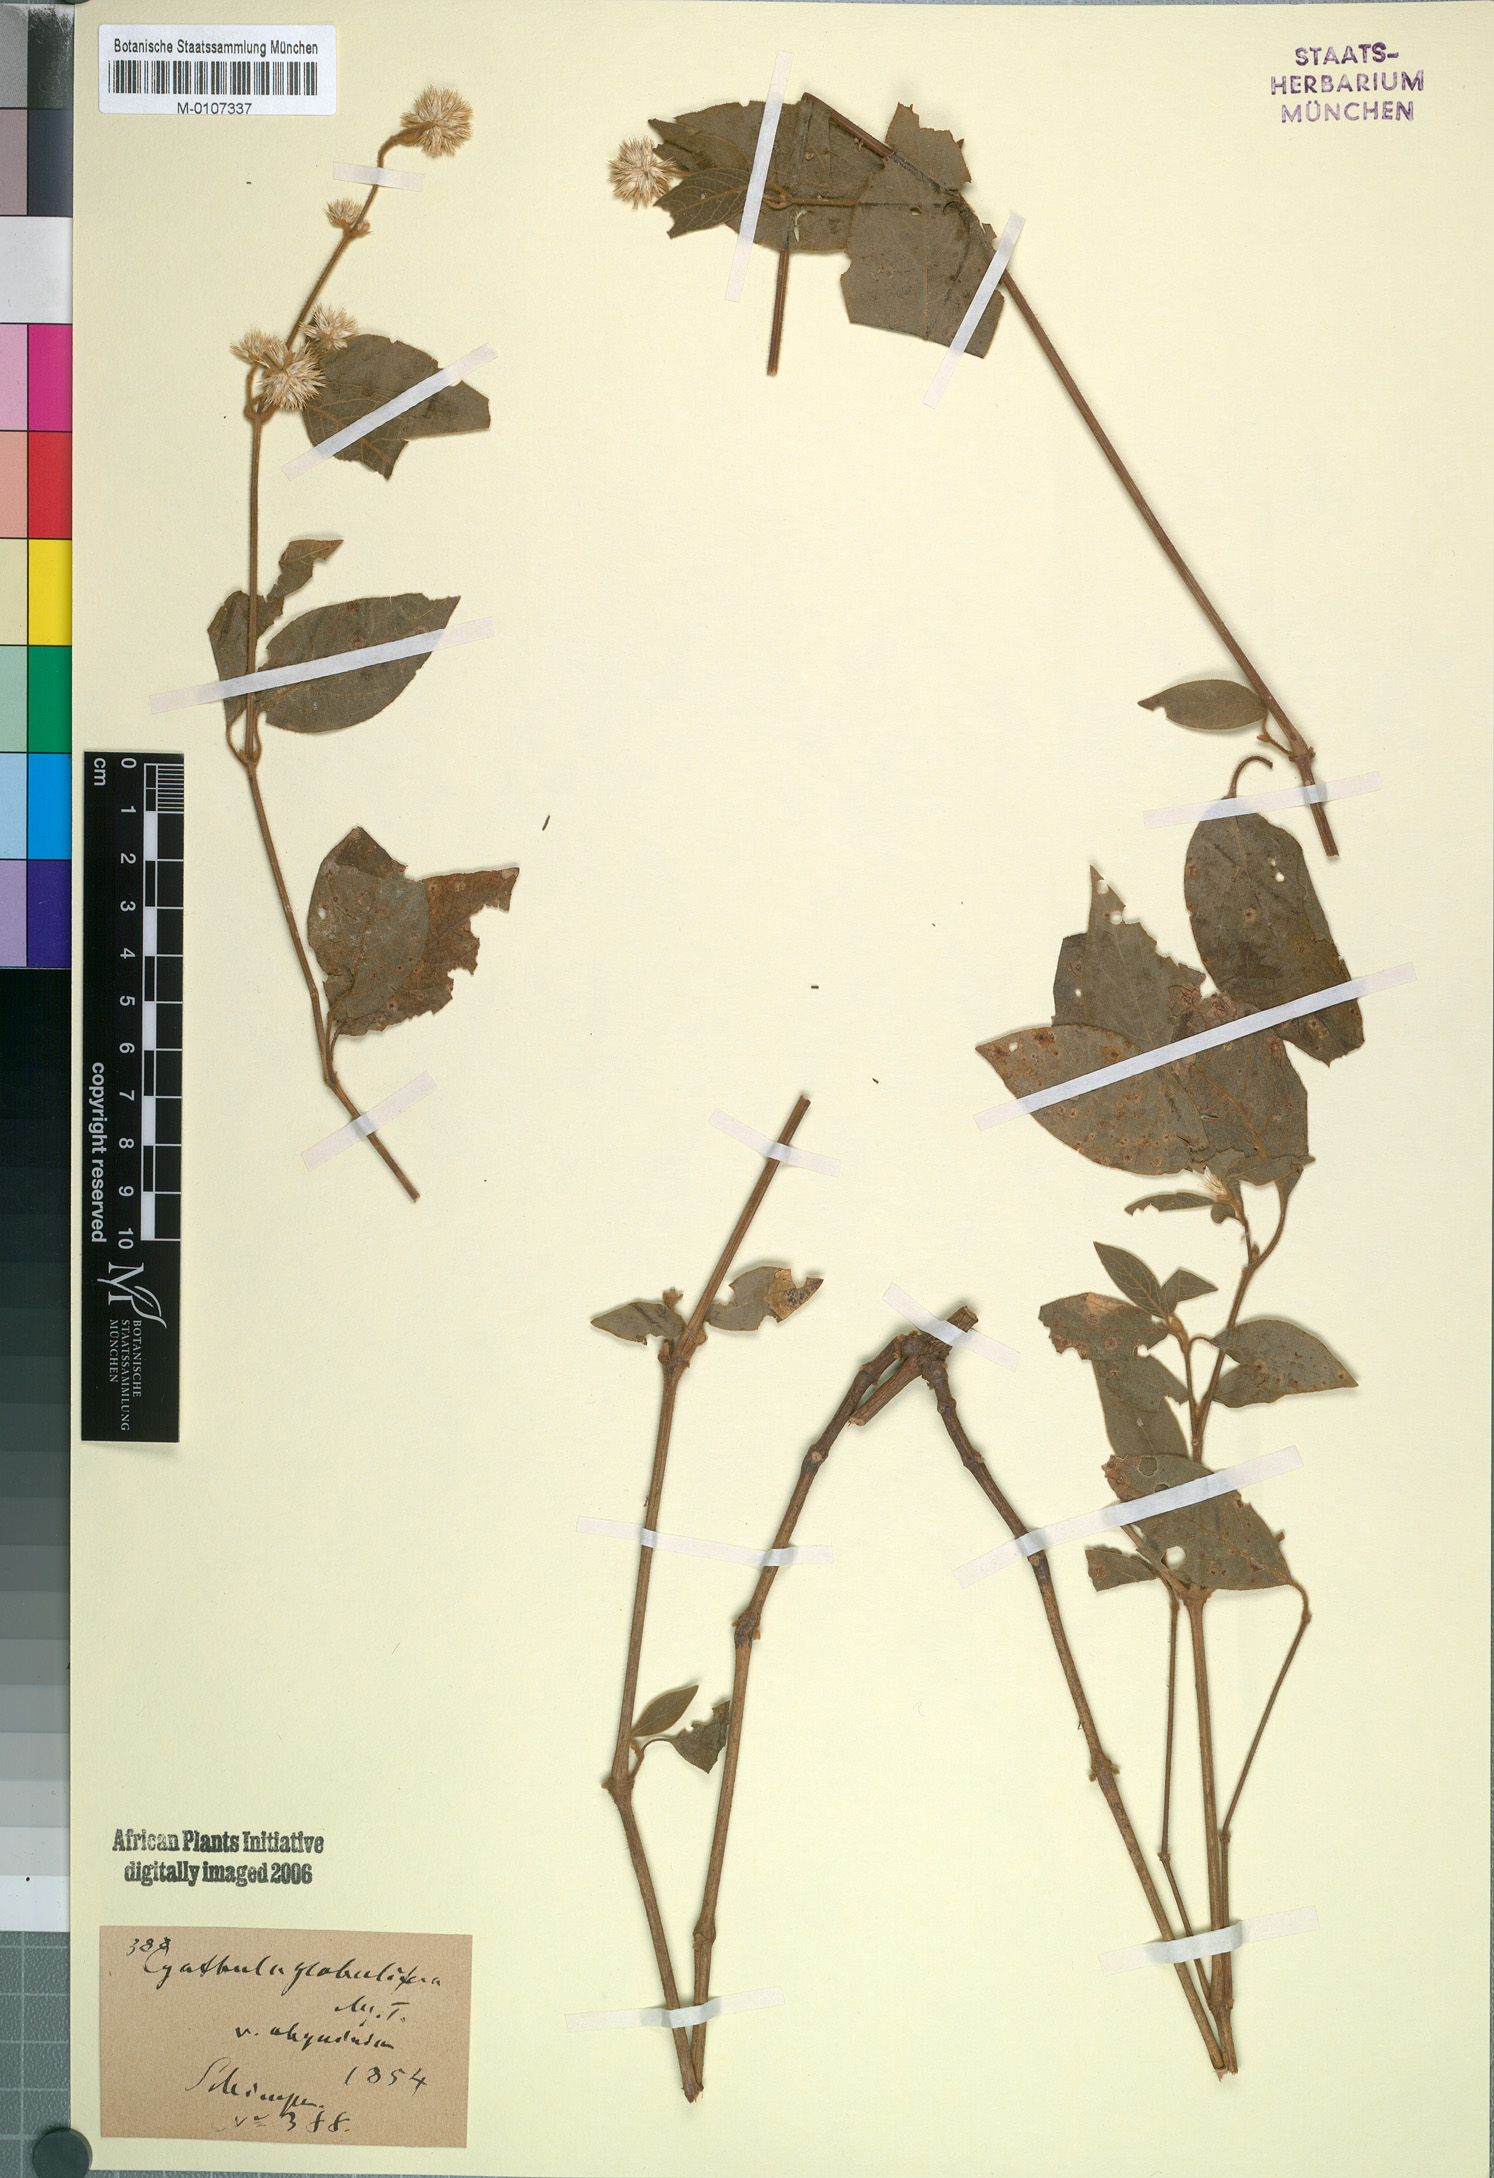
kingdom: Plantae
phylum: Tracheophyta
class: Magnoliopsida
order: Caryophyllales
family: Amaranthaceae
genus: Cyathula
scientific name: Cyathula uncinulata
